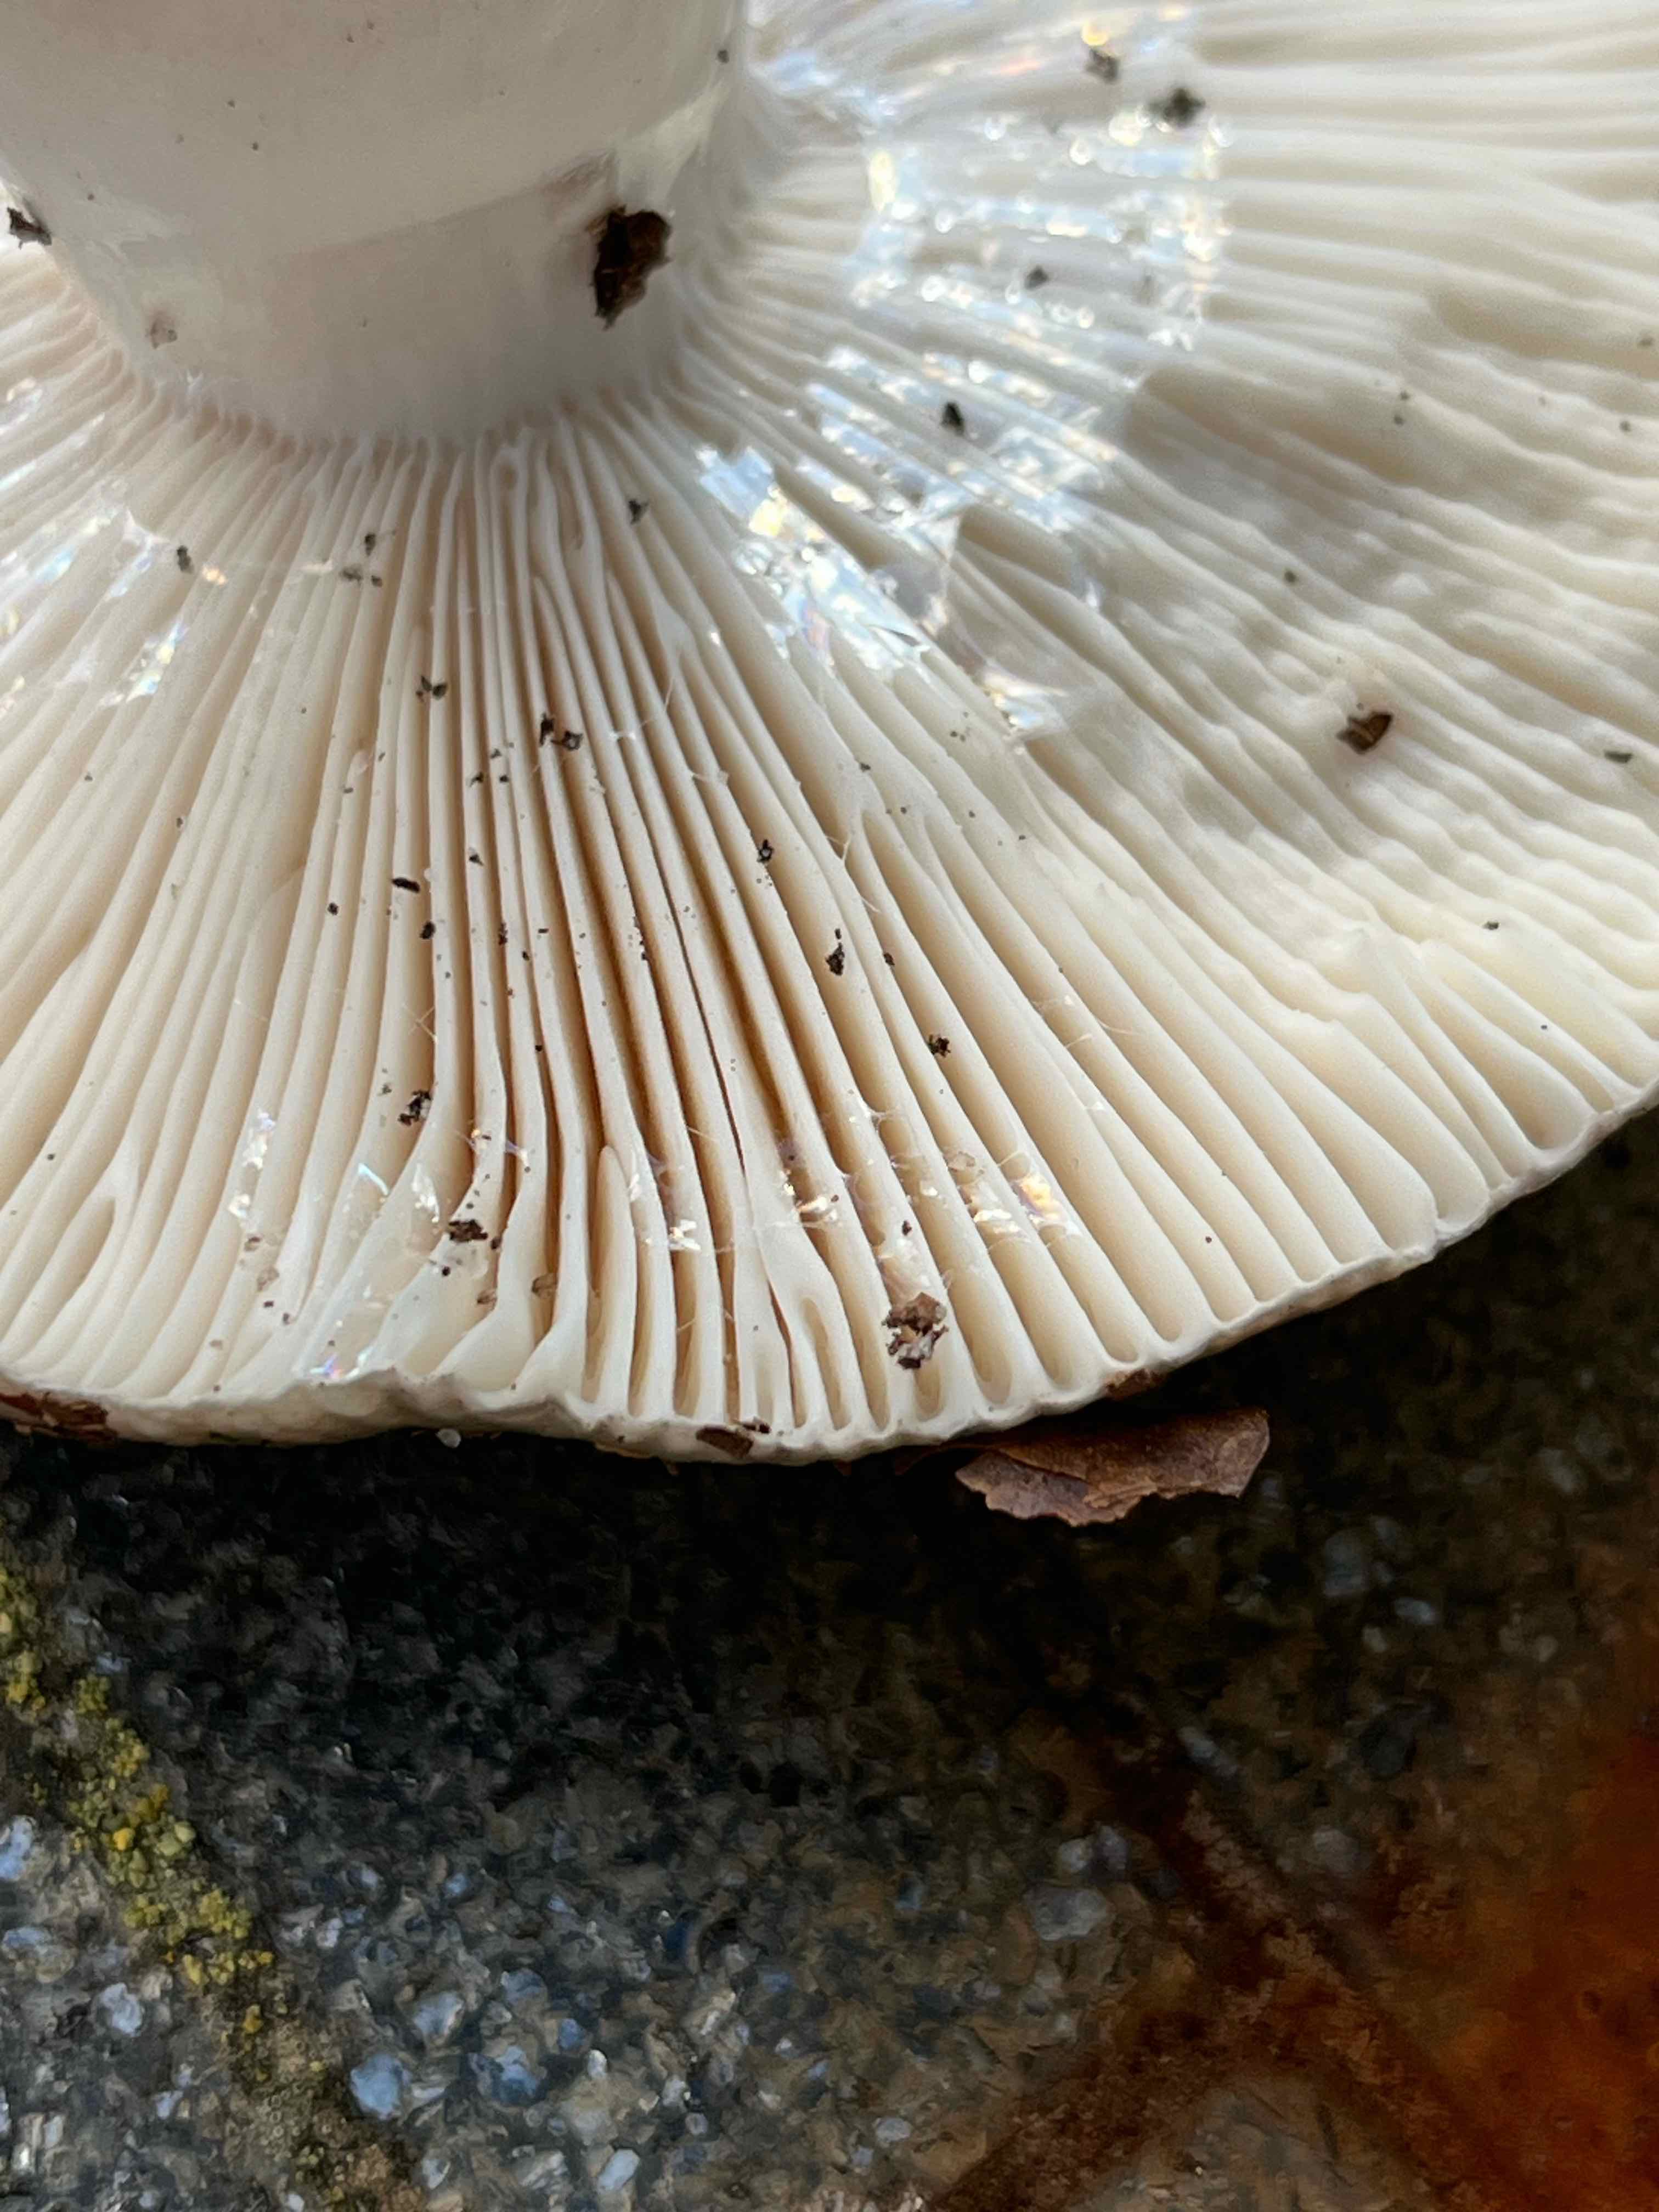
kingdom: Fungi
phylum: Basidiomycota
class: Agaricomycetes
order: Russulales
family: Russulaceae
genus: Russula
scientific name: Russula cyanoxantha
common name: broget skørhat
